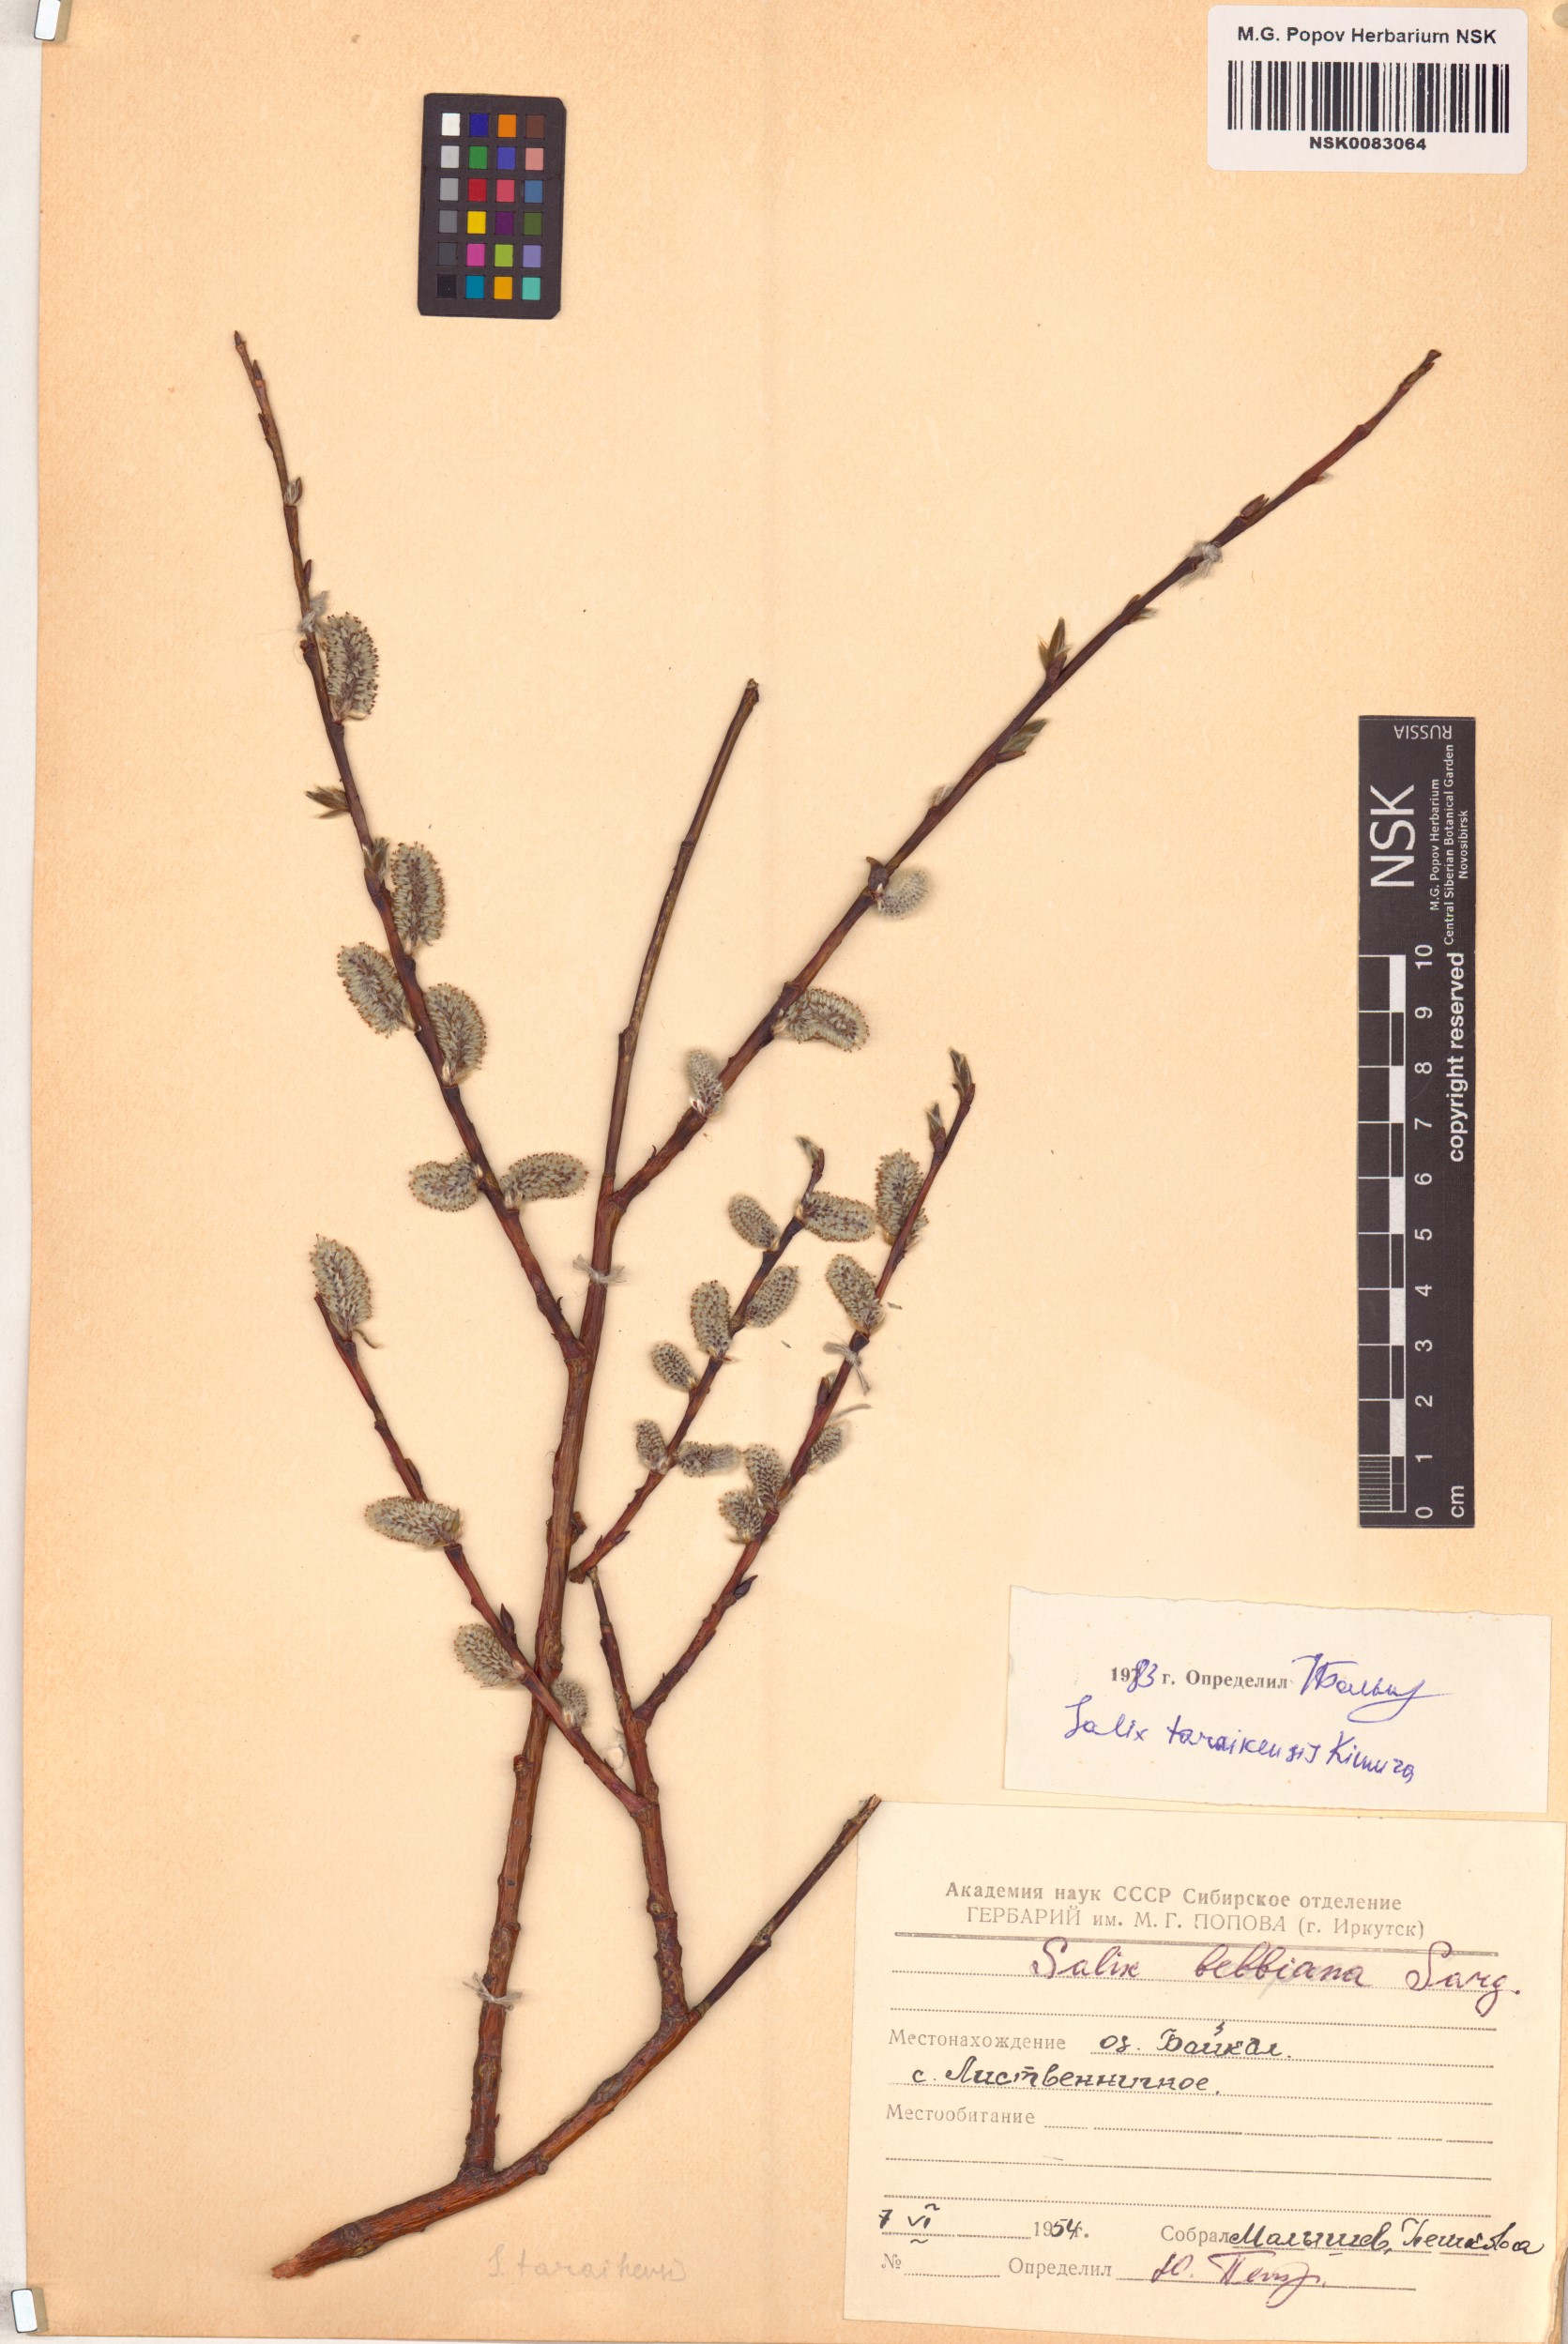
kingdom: Plantae
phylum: Tracheophyta
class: Magnoliopsida
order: Malpighiales
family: Salicaceae
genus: Salix
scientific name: Salix taraikensis
